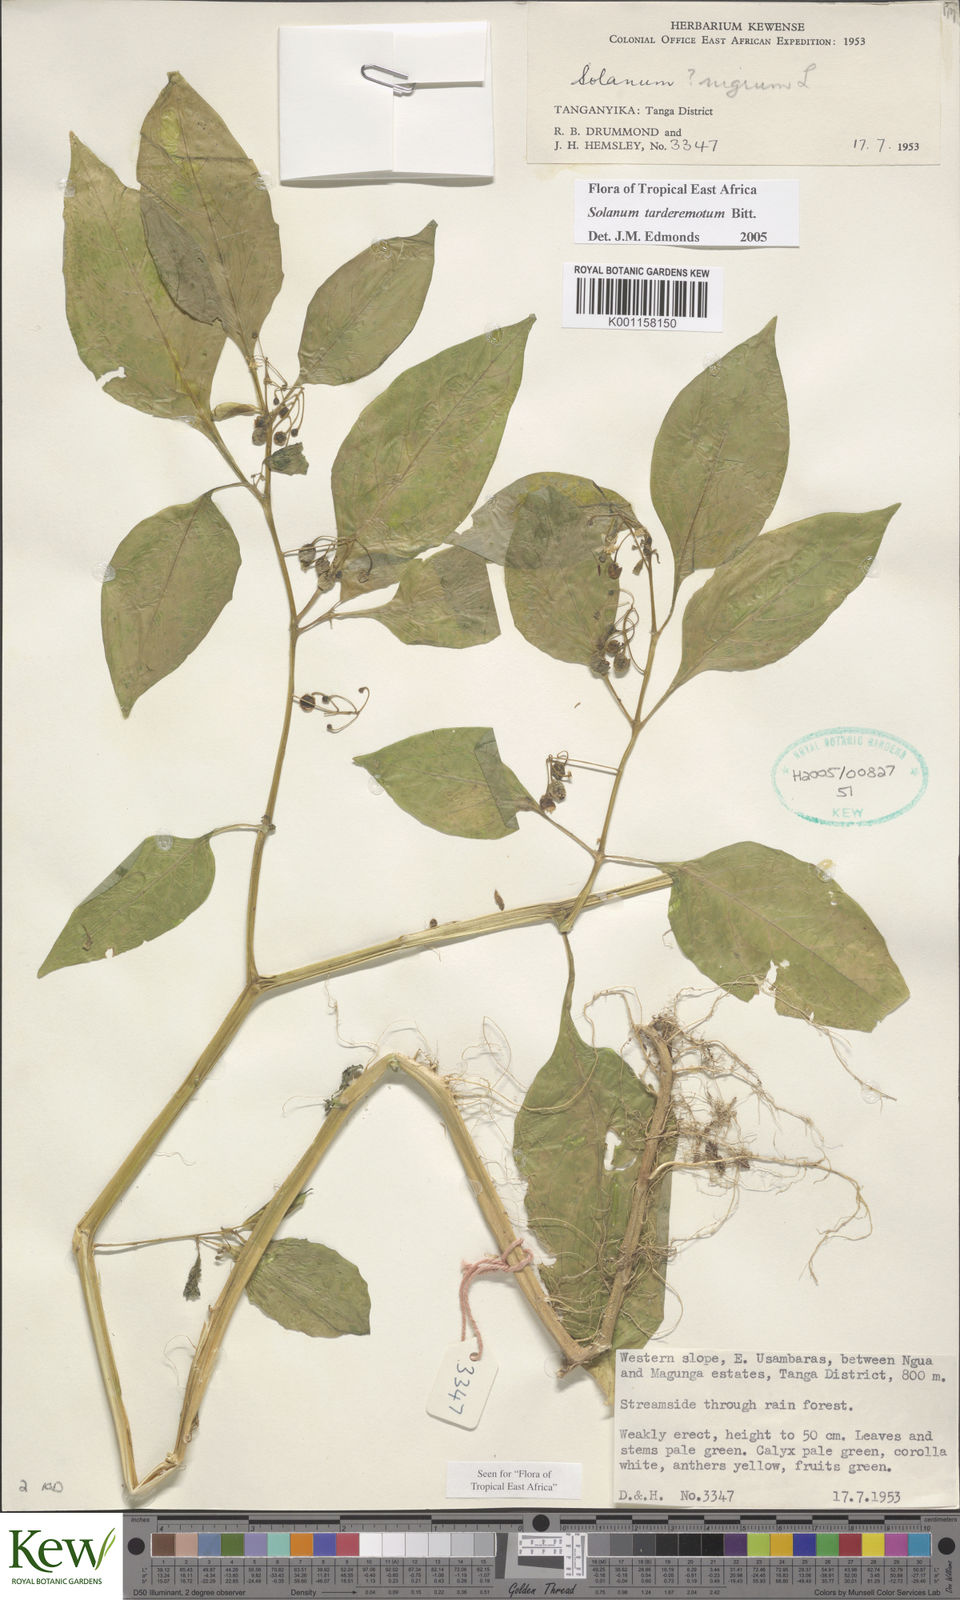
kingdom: Plantae
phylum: Tracheophyta
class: Magnoliopsida
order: Solanales
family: Solanaceae
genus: Solanum
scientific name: Solanum tarderemotum
